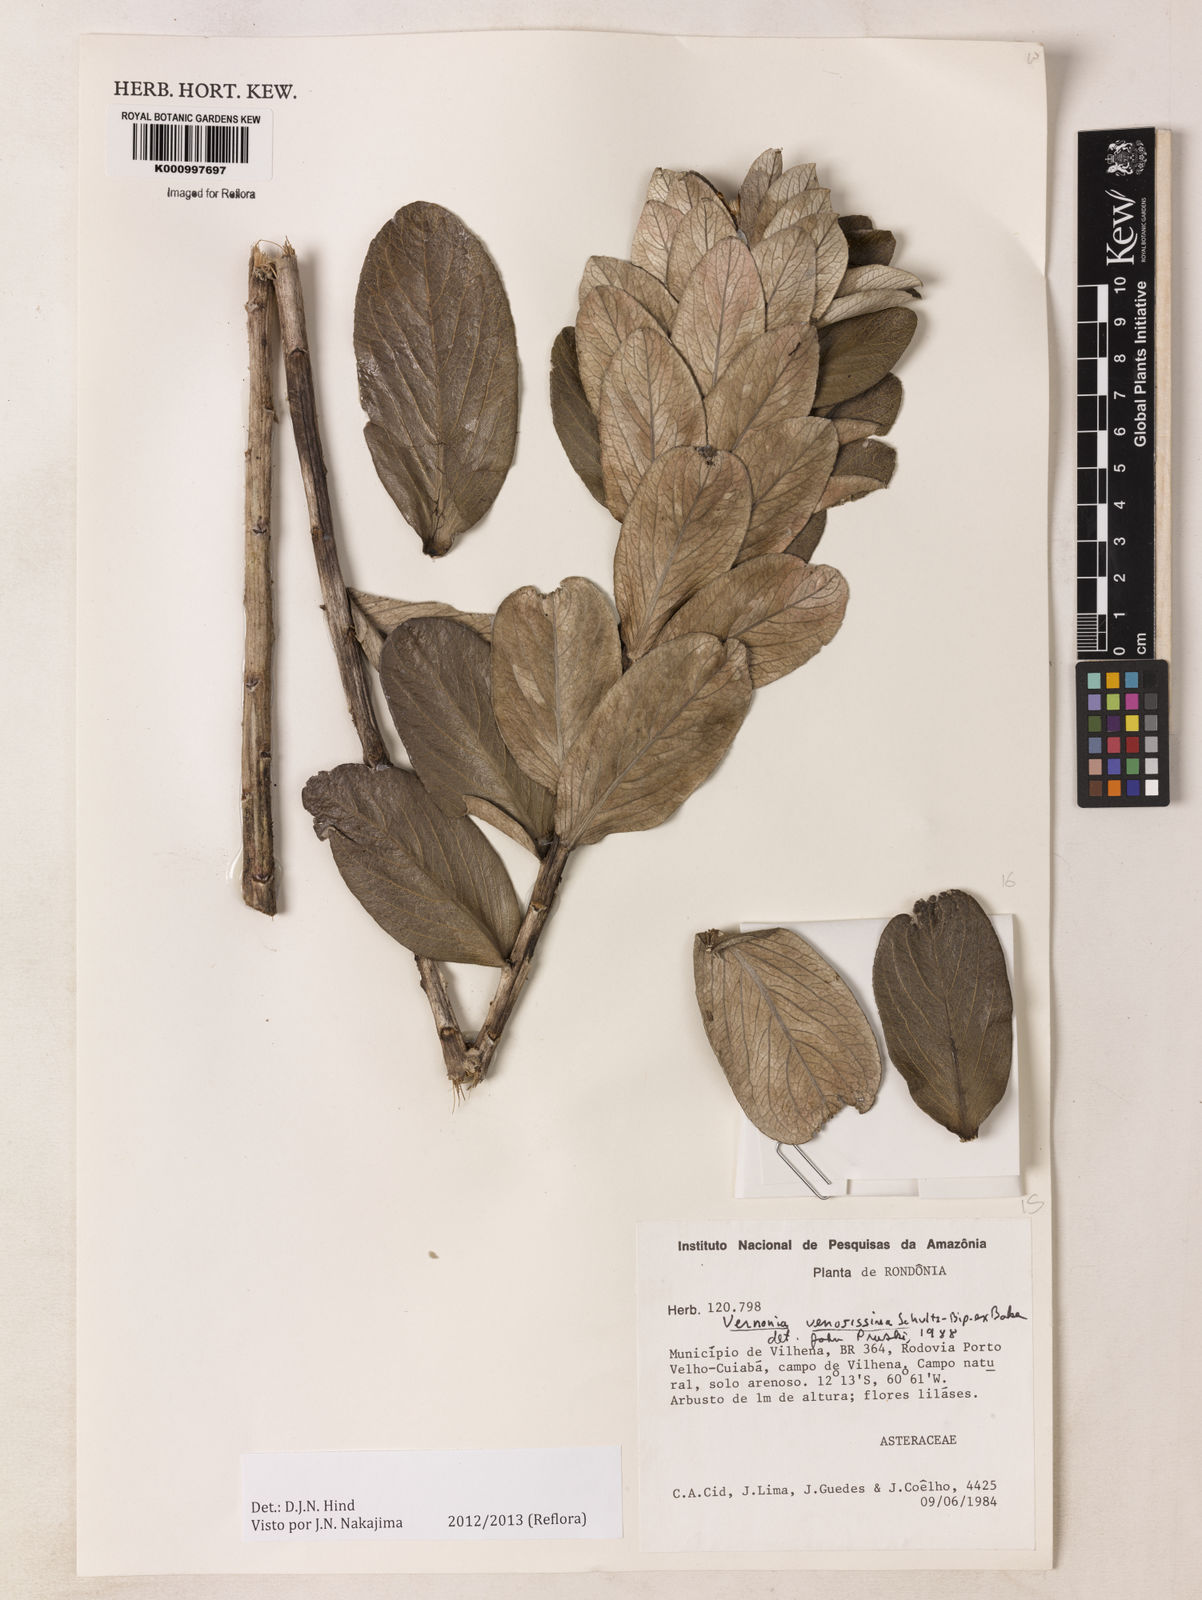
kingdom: Plantae
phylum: Tracheophyta
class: Magnoliopsida
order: Asterales
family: Asteraceae
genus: Lessingianthus
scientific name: Lessingianthus venosissimus
